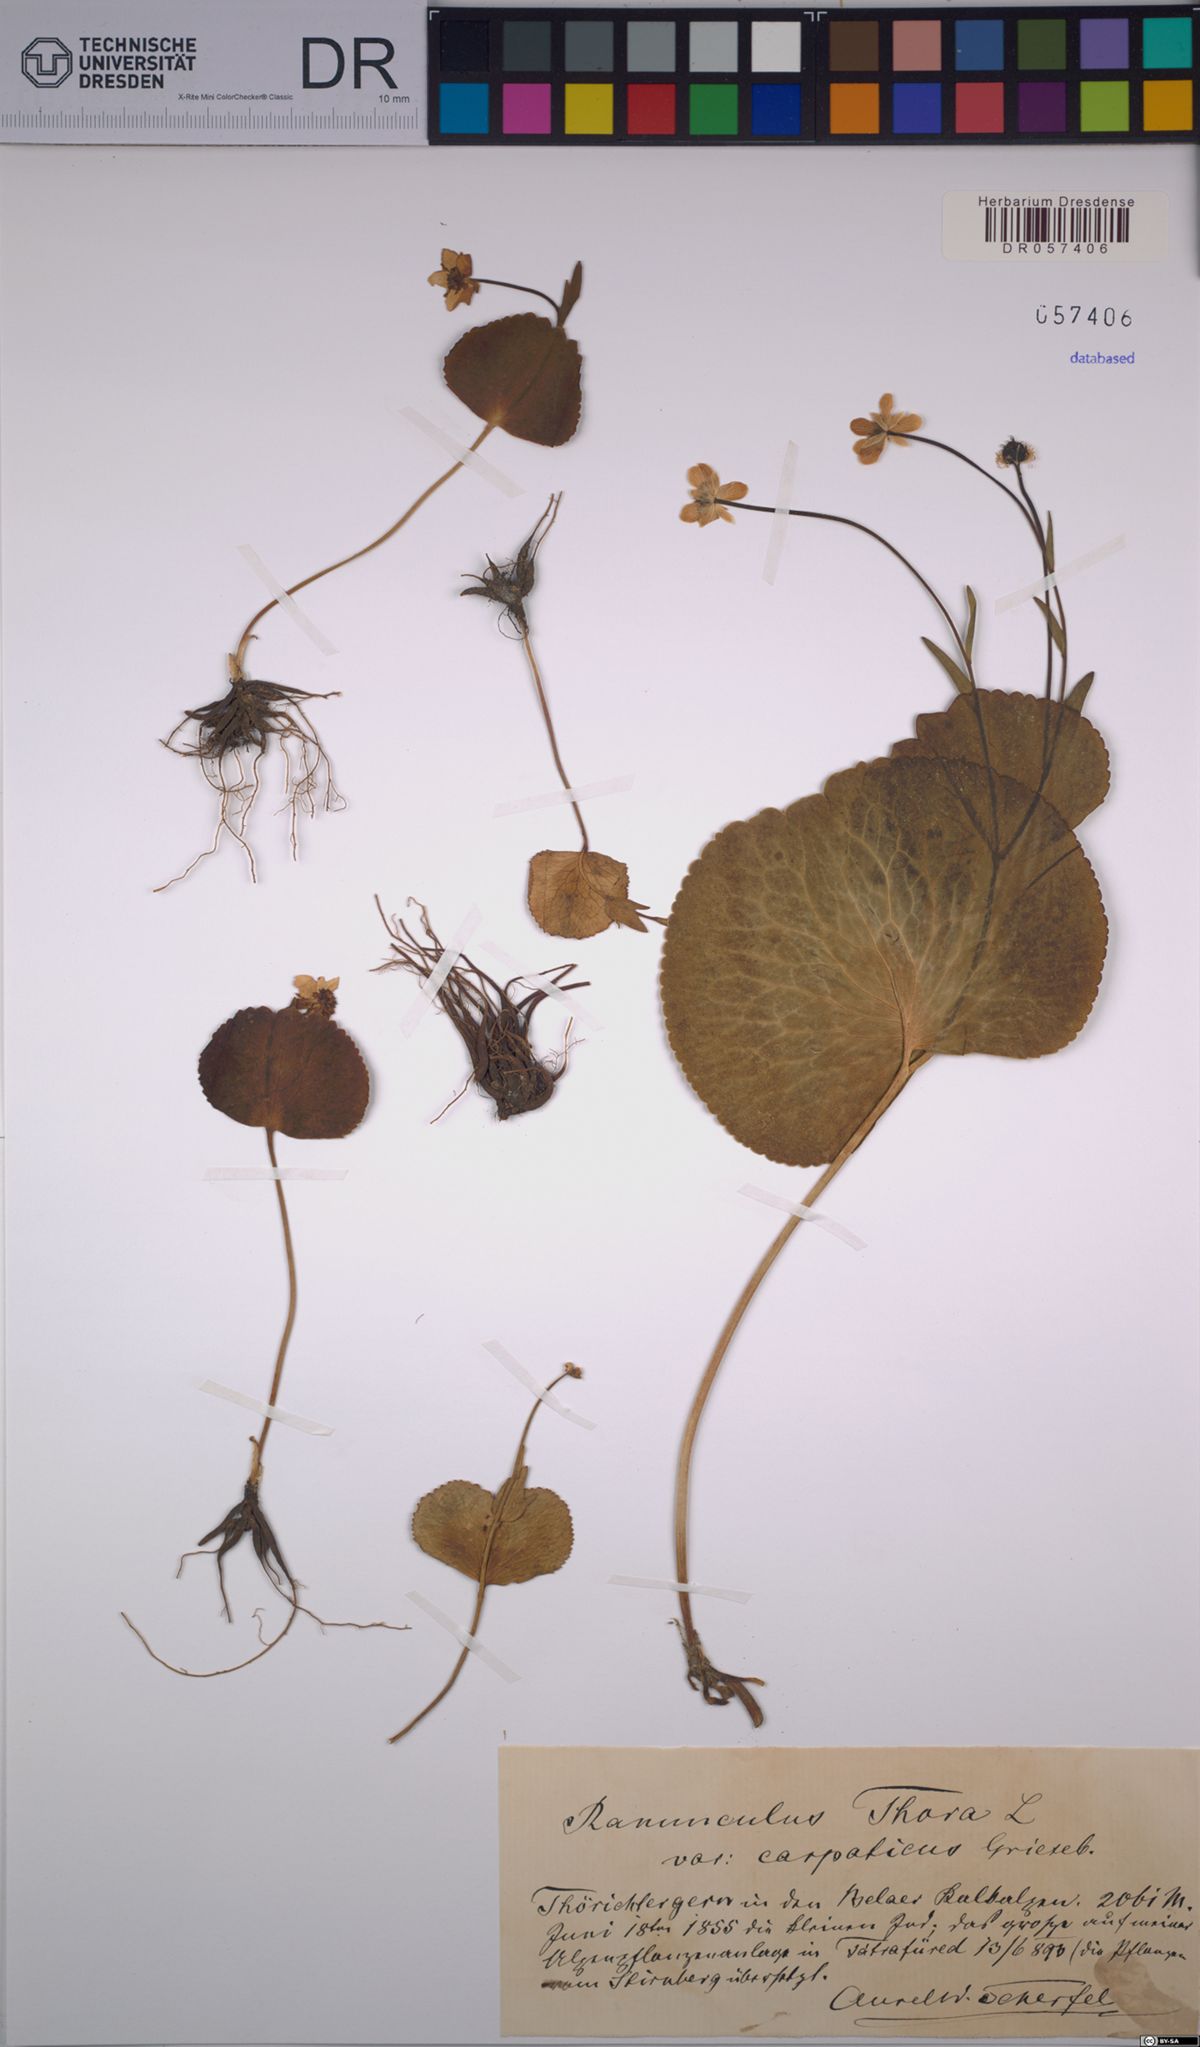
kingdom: Plantae
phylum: Tracheophyta
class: Magnoliopsida
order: Ranunculales
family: Ranunculaceae
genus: Ranunculus
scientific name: Ranunculus thora
